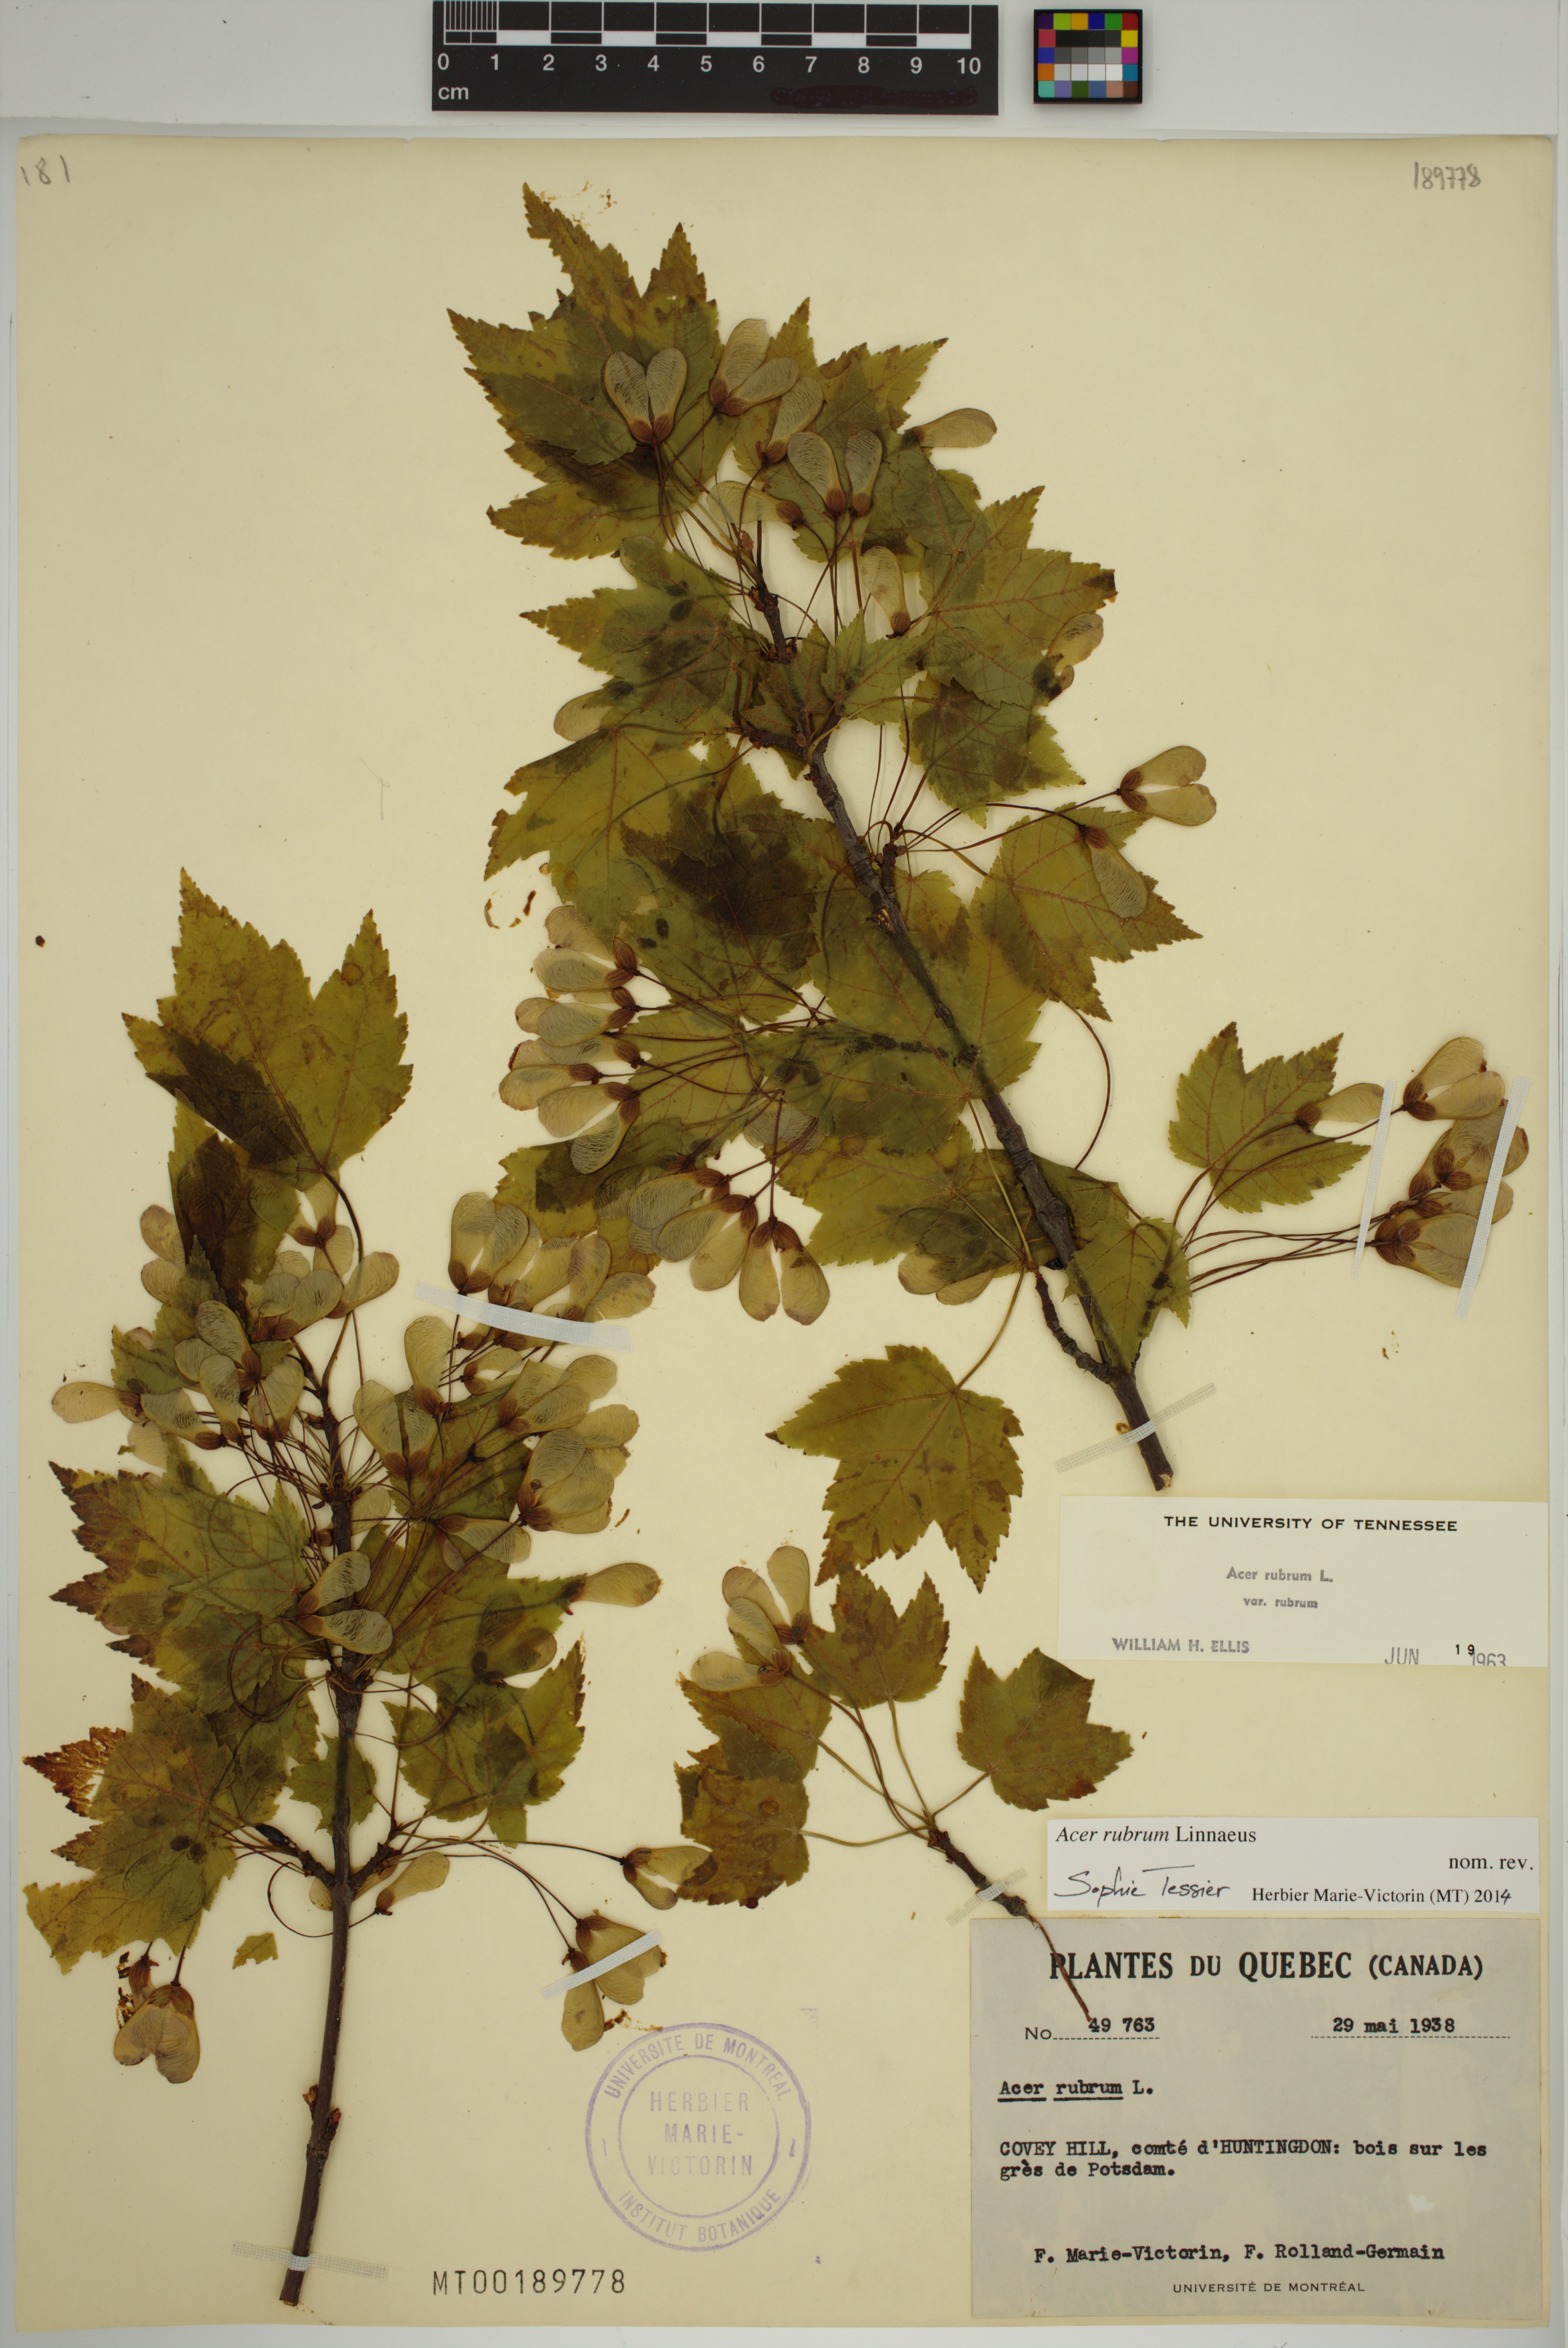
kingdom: Plantae
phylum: Tracheophyta
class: Magnoliopsida
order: Sapindales
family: Sapindaceae
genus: Acer
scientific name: Acer rubrum
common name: Red maple
